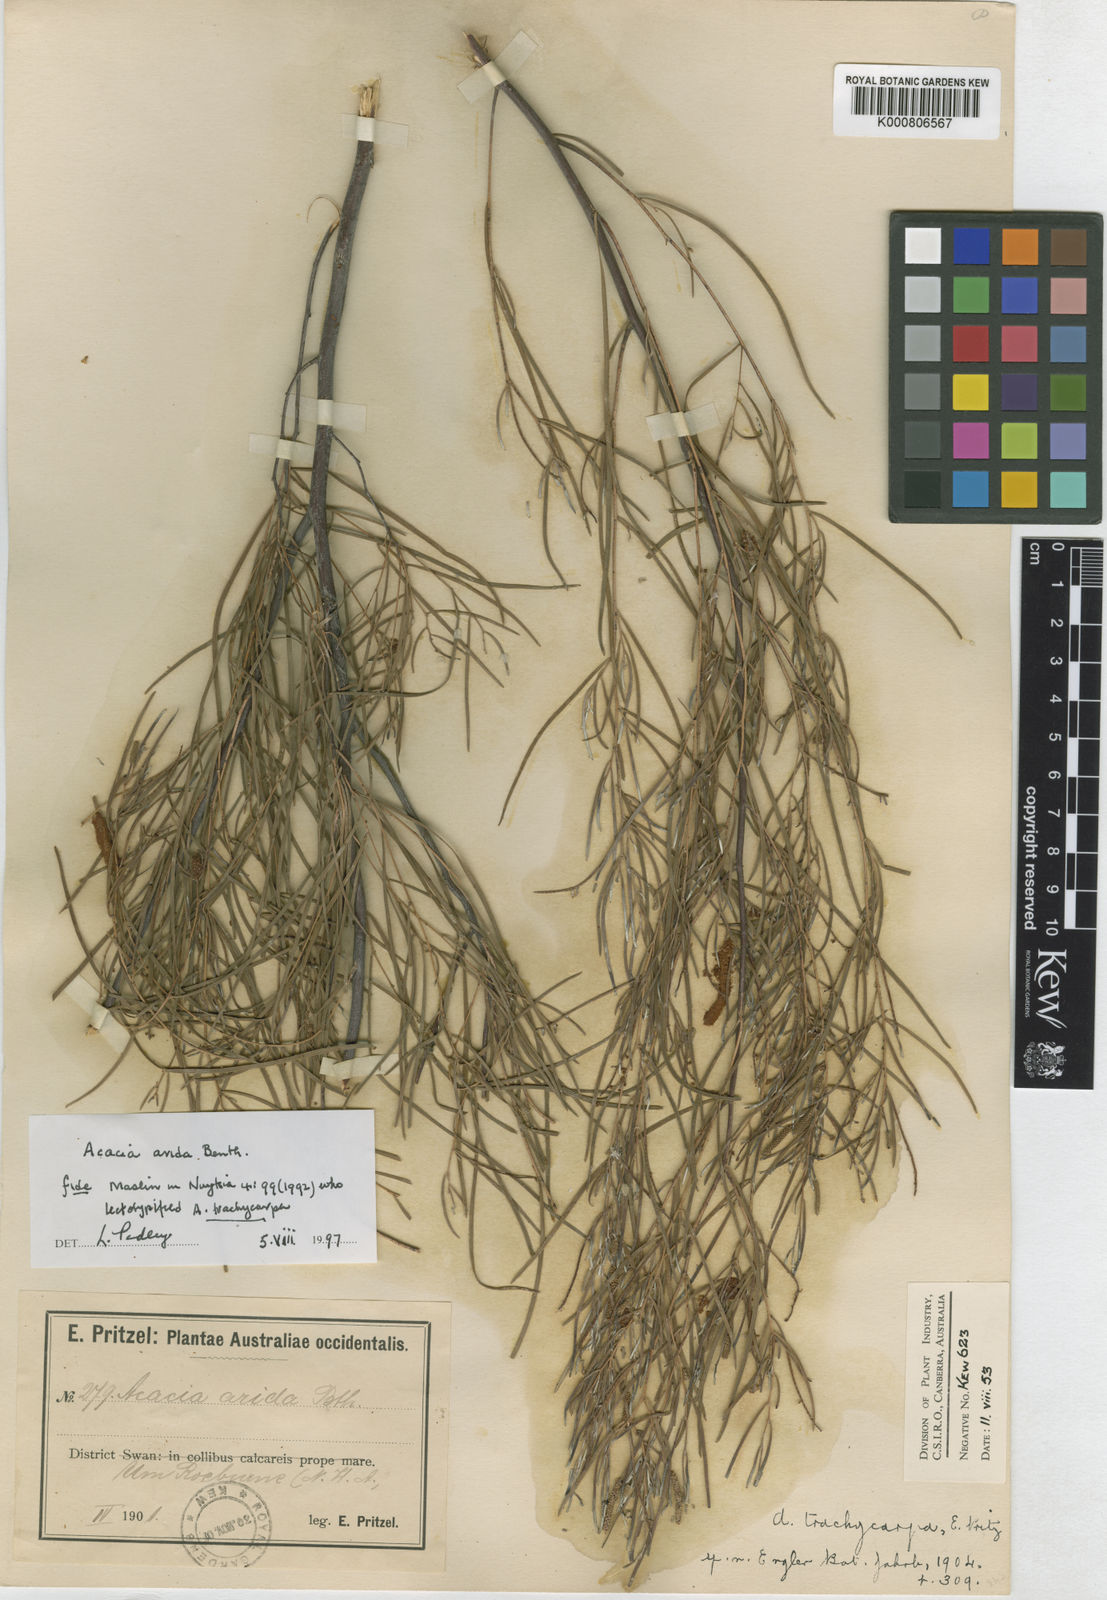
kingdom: Plantae
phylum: Tracheophyta
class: Magnoliopsida
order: Fabales
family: Fabaceae
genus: Acacia
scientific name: Acacia trachycarpa
